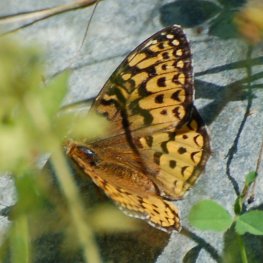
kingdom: Animalia
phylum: Arthropoda
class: Insecta
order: Lepidoptera
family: Nymphalidae
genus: Speyeria
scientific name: Speyeria atlantis
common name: Atlantis Fritillary
